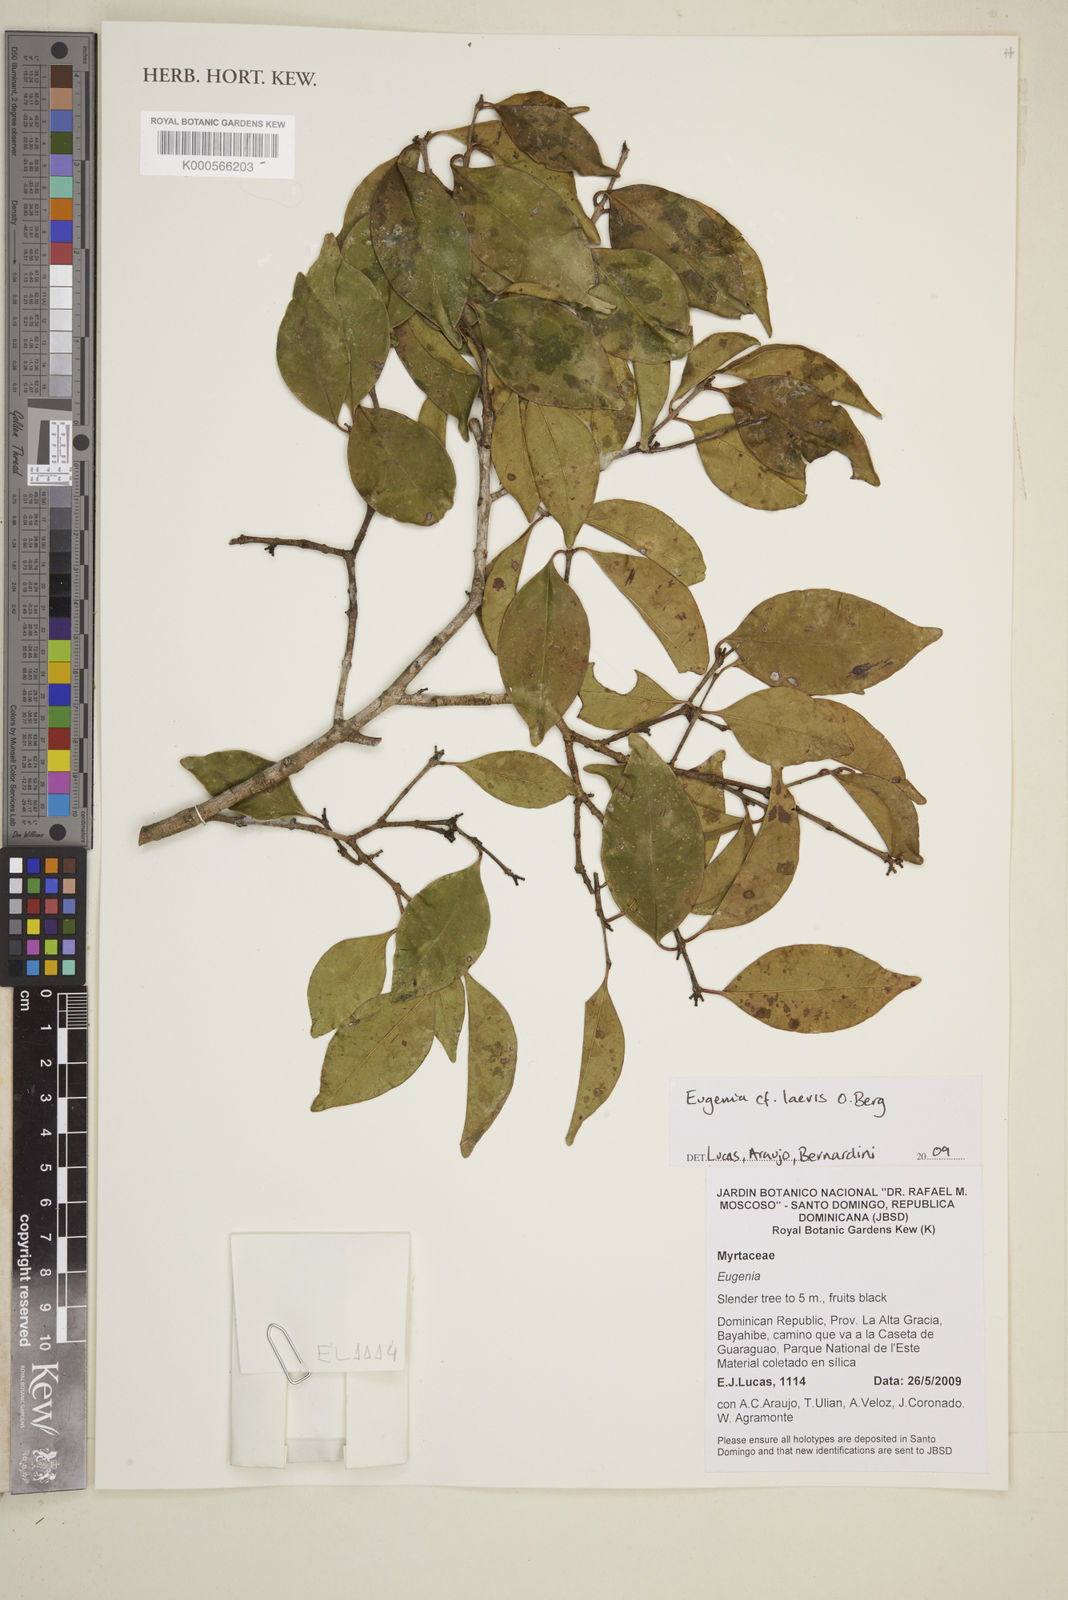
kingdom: Plantae
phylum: Tracheophyta
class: Magnoliopsida
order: Myrtales
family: Myrtaceae
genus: Eugenia
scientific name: Eugenia laevis
